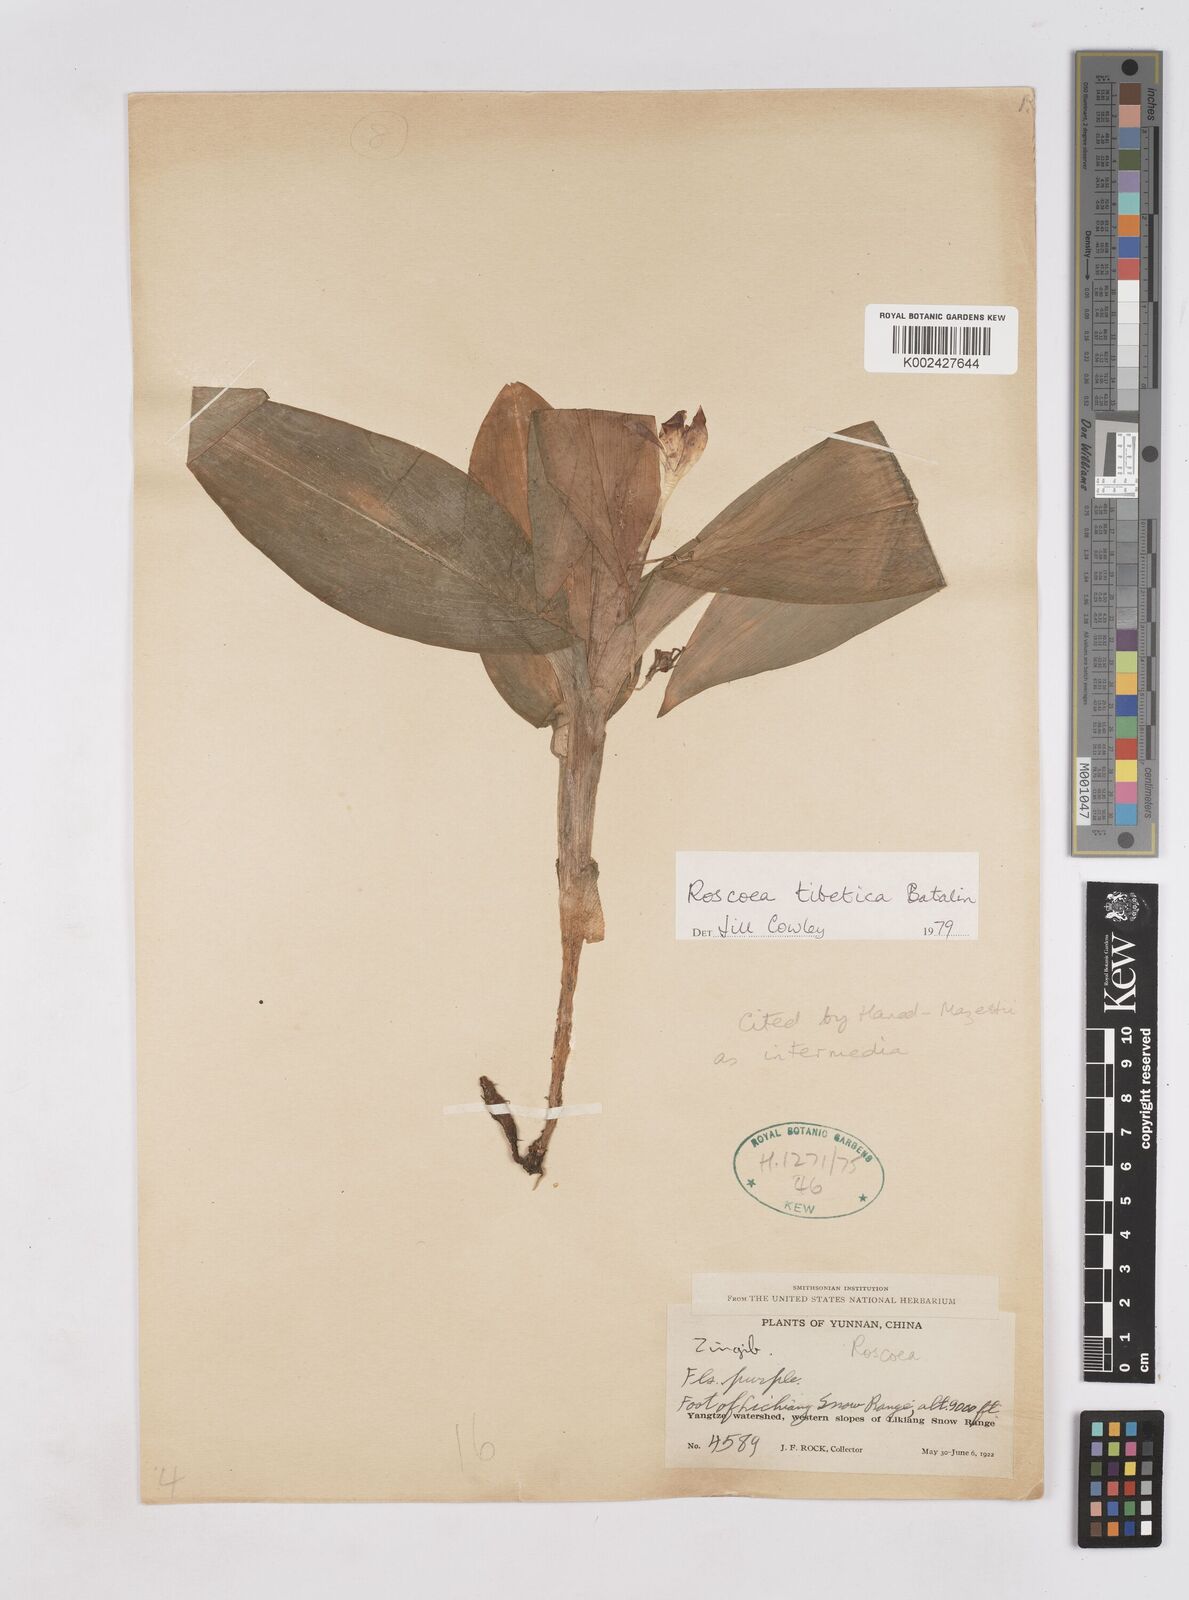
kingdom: Plantae
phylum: Tracheophyta
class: Liliopsida
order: Zingiberales
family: Zingiberaceae
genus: Roscoea
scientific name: Roscoea tibetica
